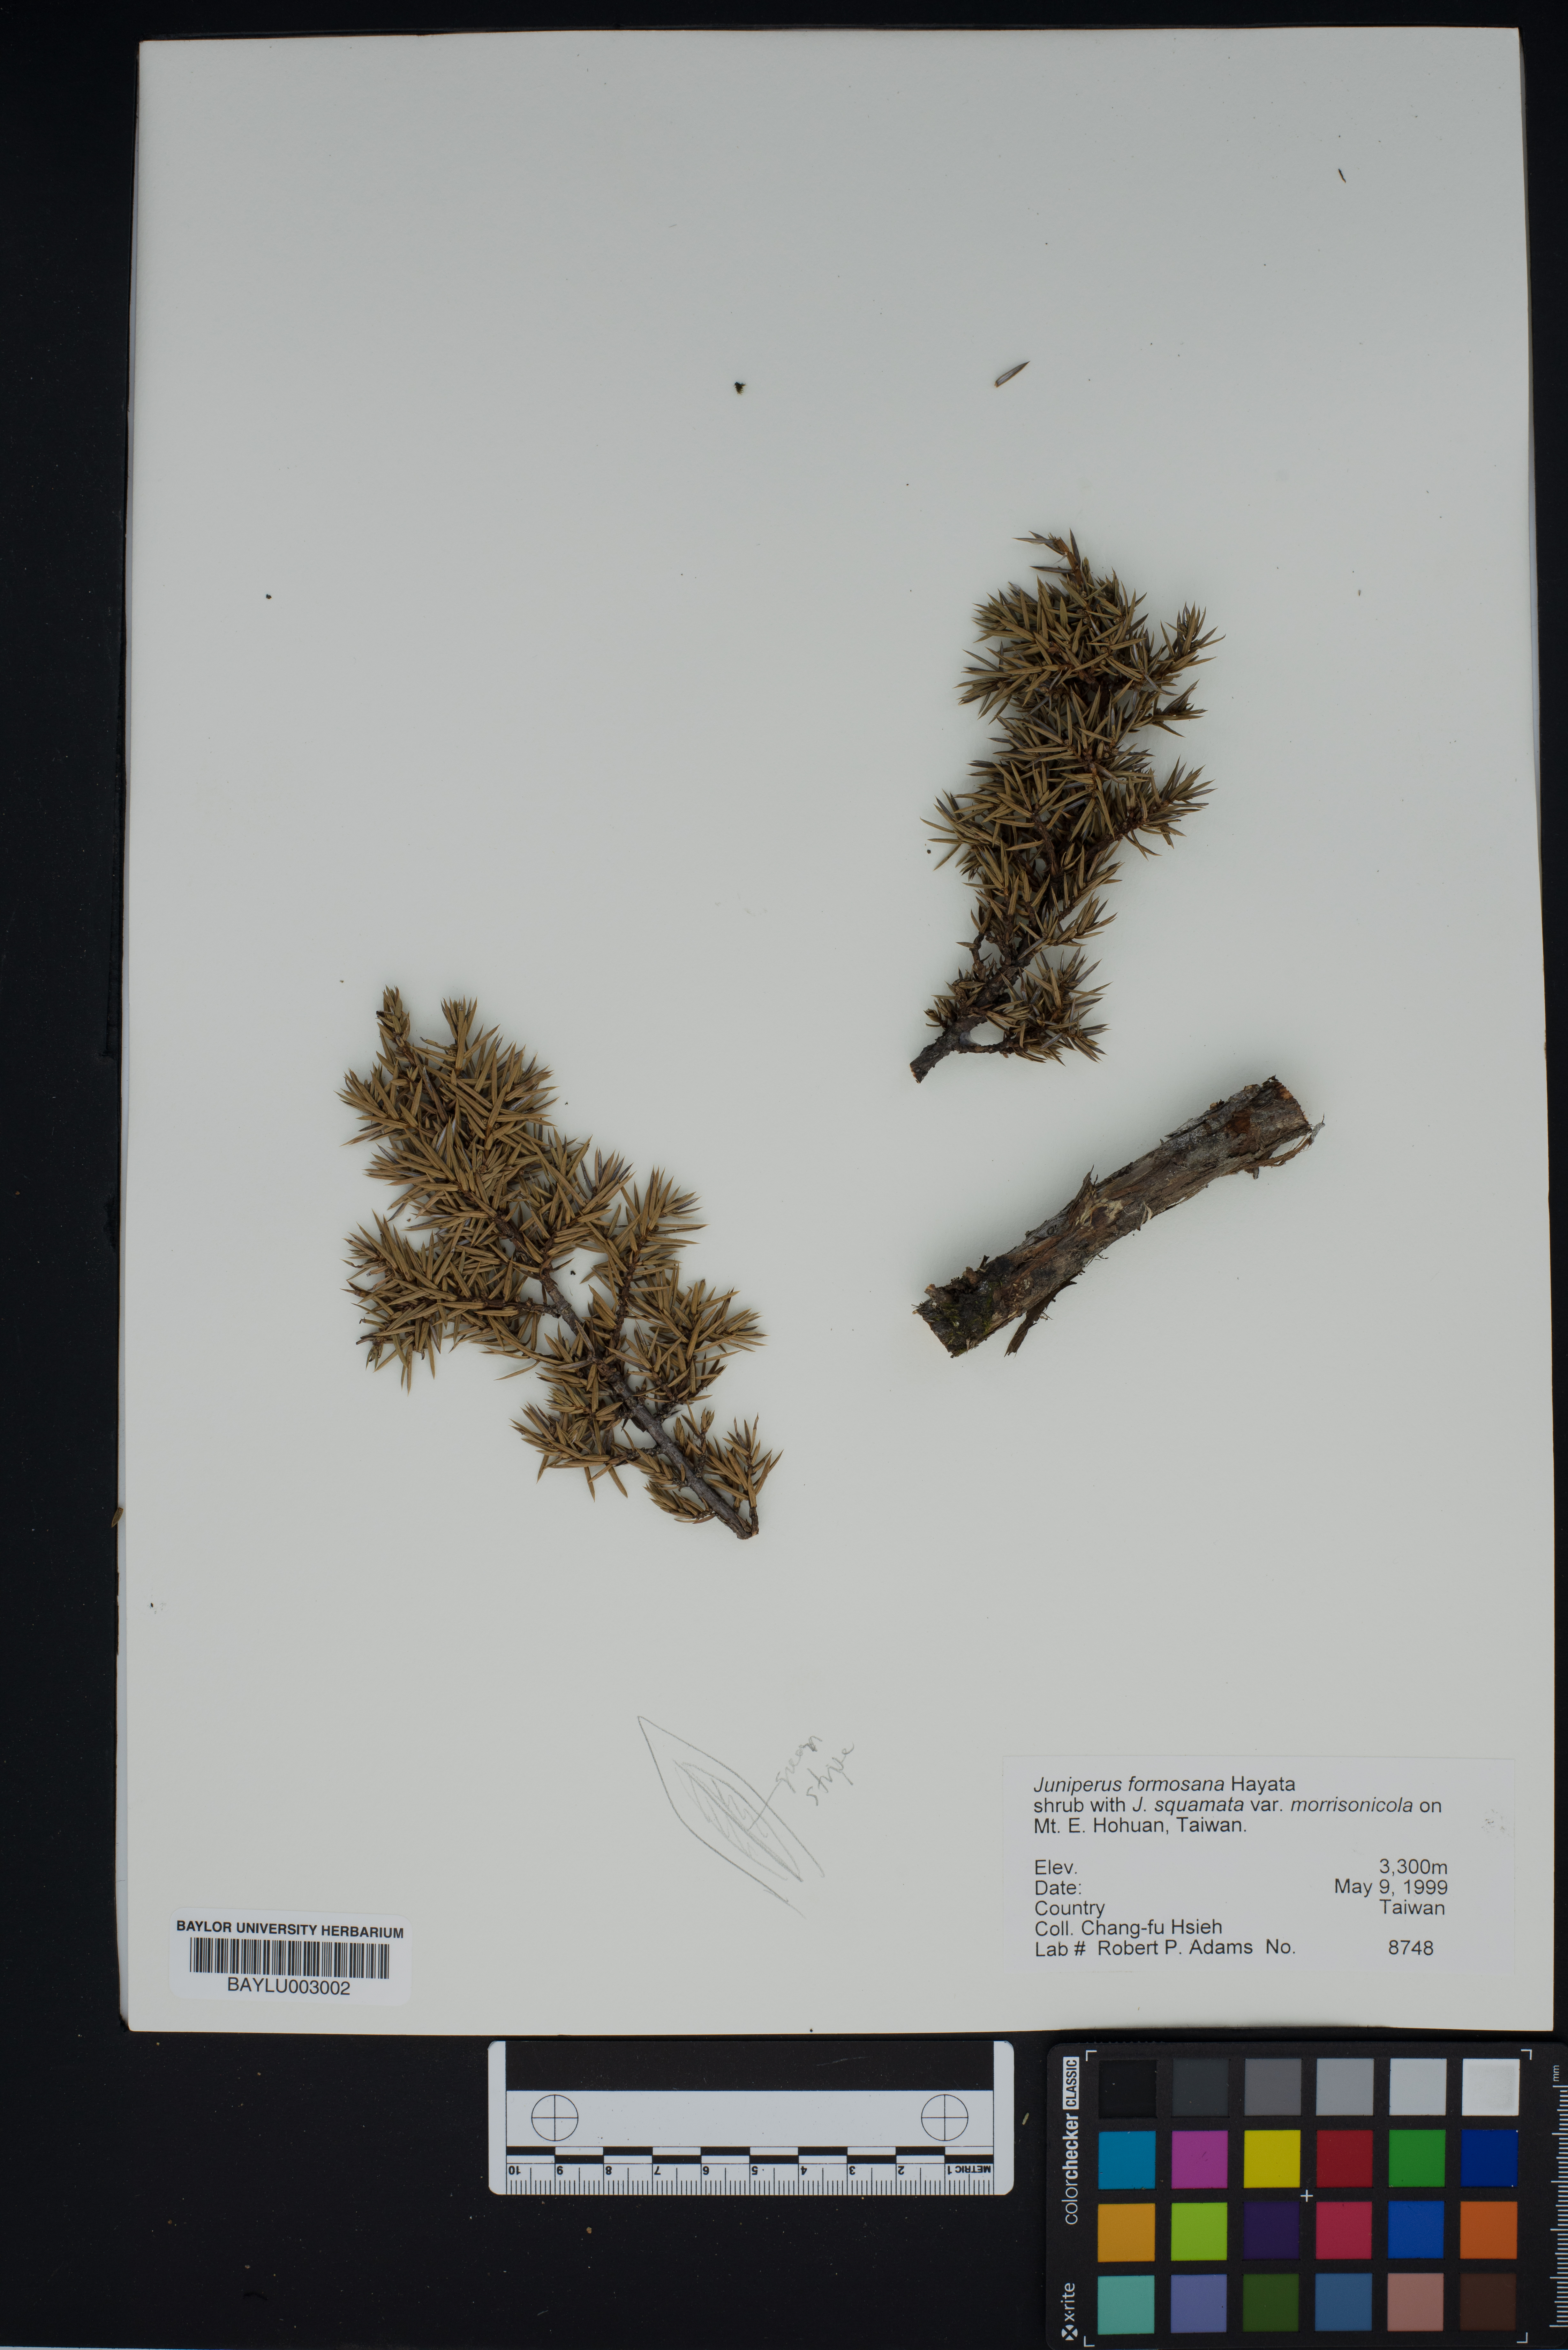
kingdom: Plantae
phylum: Tracheophyta
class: Pinopsida
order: Pinales
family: Cupressaceae
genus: Juniperus
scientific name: Juniperus formosana
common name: Formosan juniper
